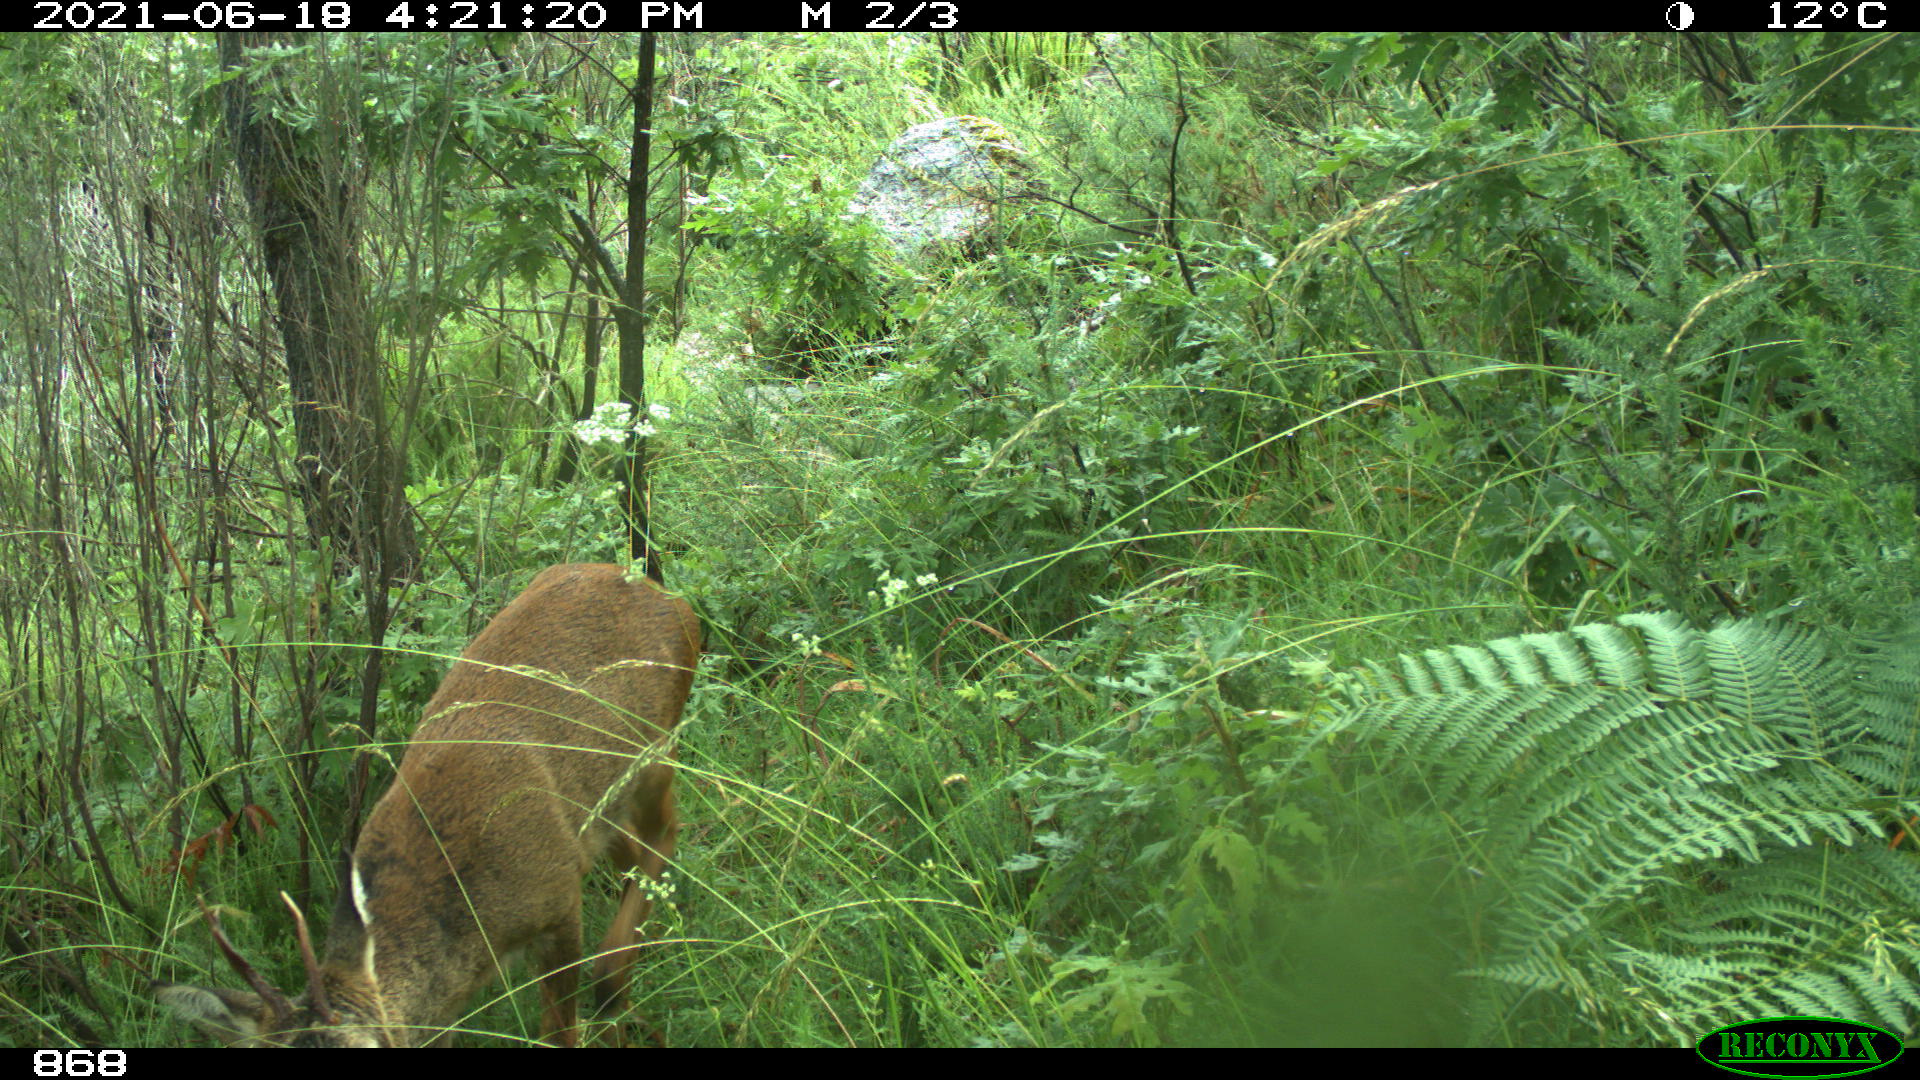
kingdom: Animalia
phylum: Chordata
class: Mammalia
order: Artiodactyla
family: Cervidae
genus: Capreolus
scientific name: Capreolus capreolus
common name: Western roe deer
